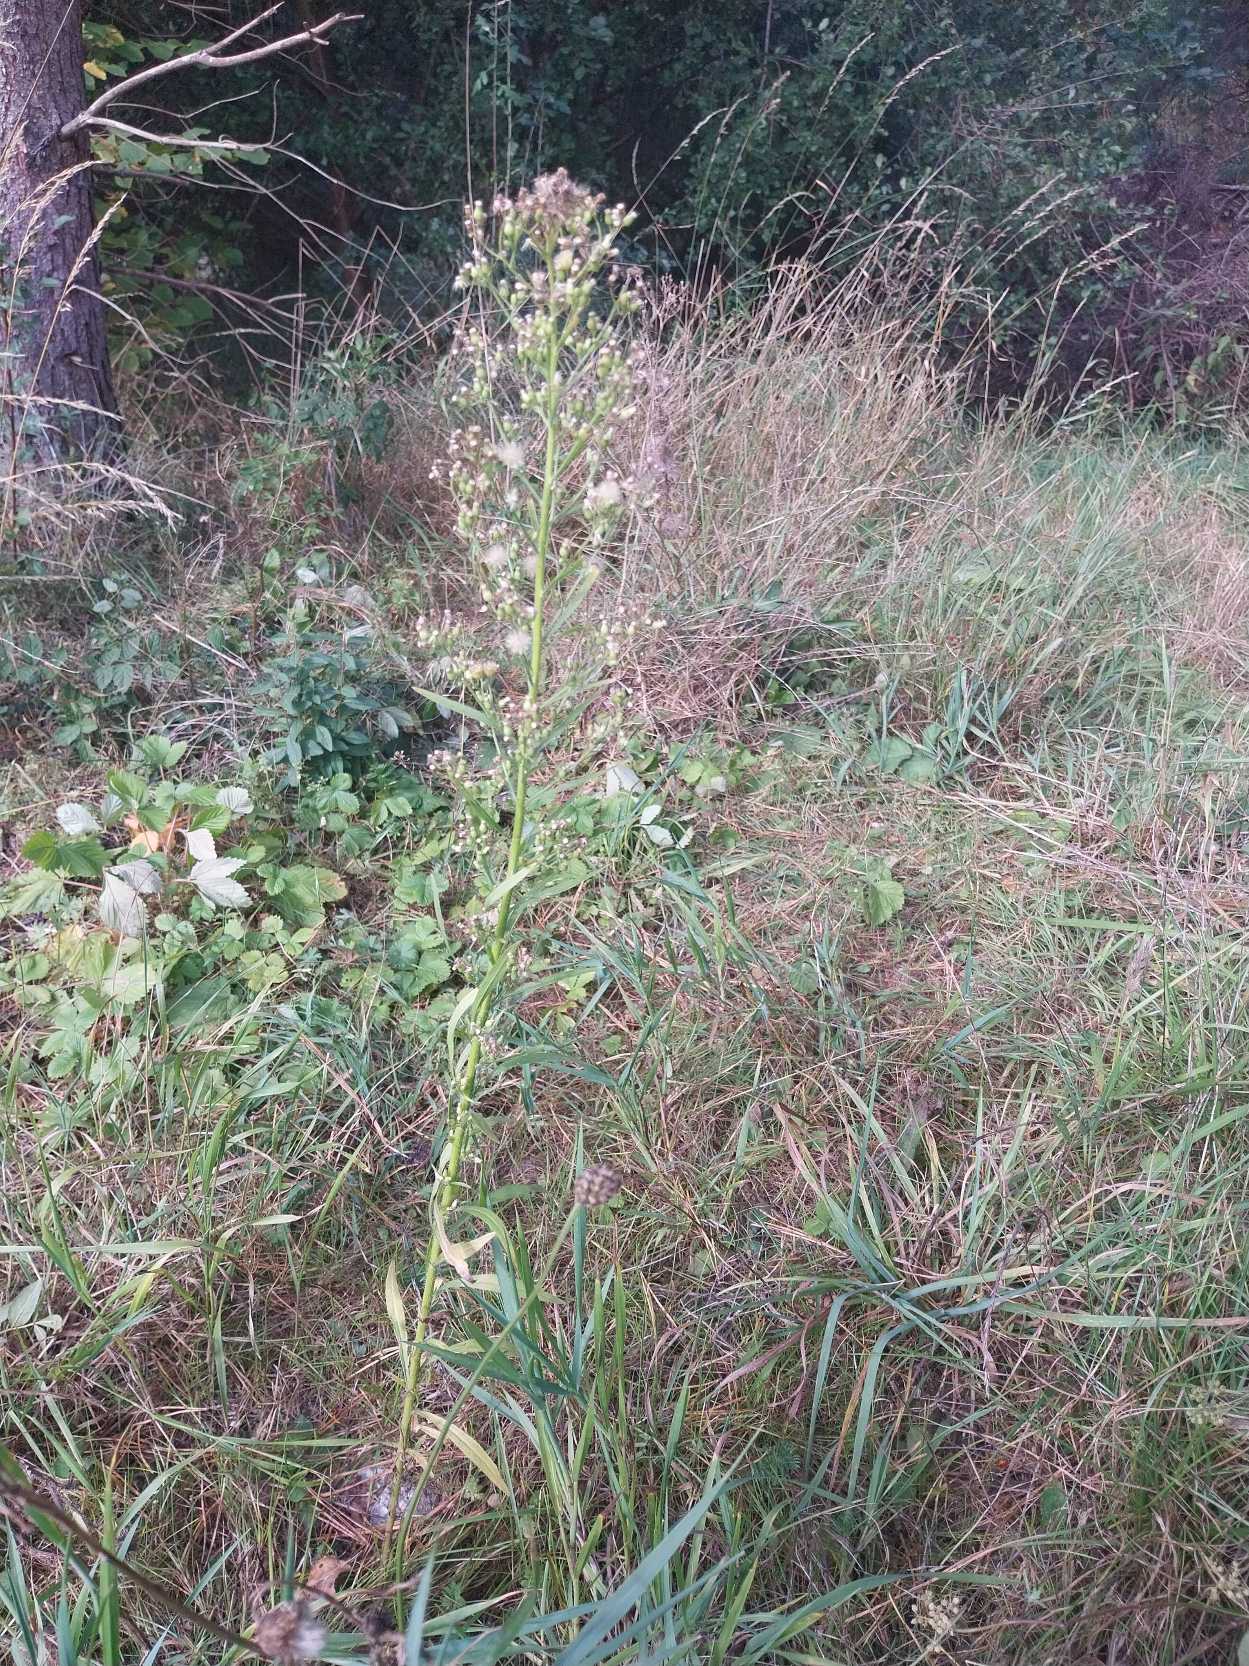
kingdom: Plantae
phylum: Tracheophyta
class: Magnoliopsida
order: Asterales
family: Asteraceae
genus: Erigeron
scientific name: Erigeron canadensis
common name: Kanadisk bakkestjerne
